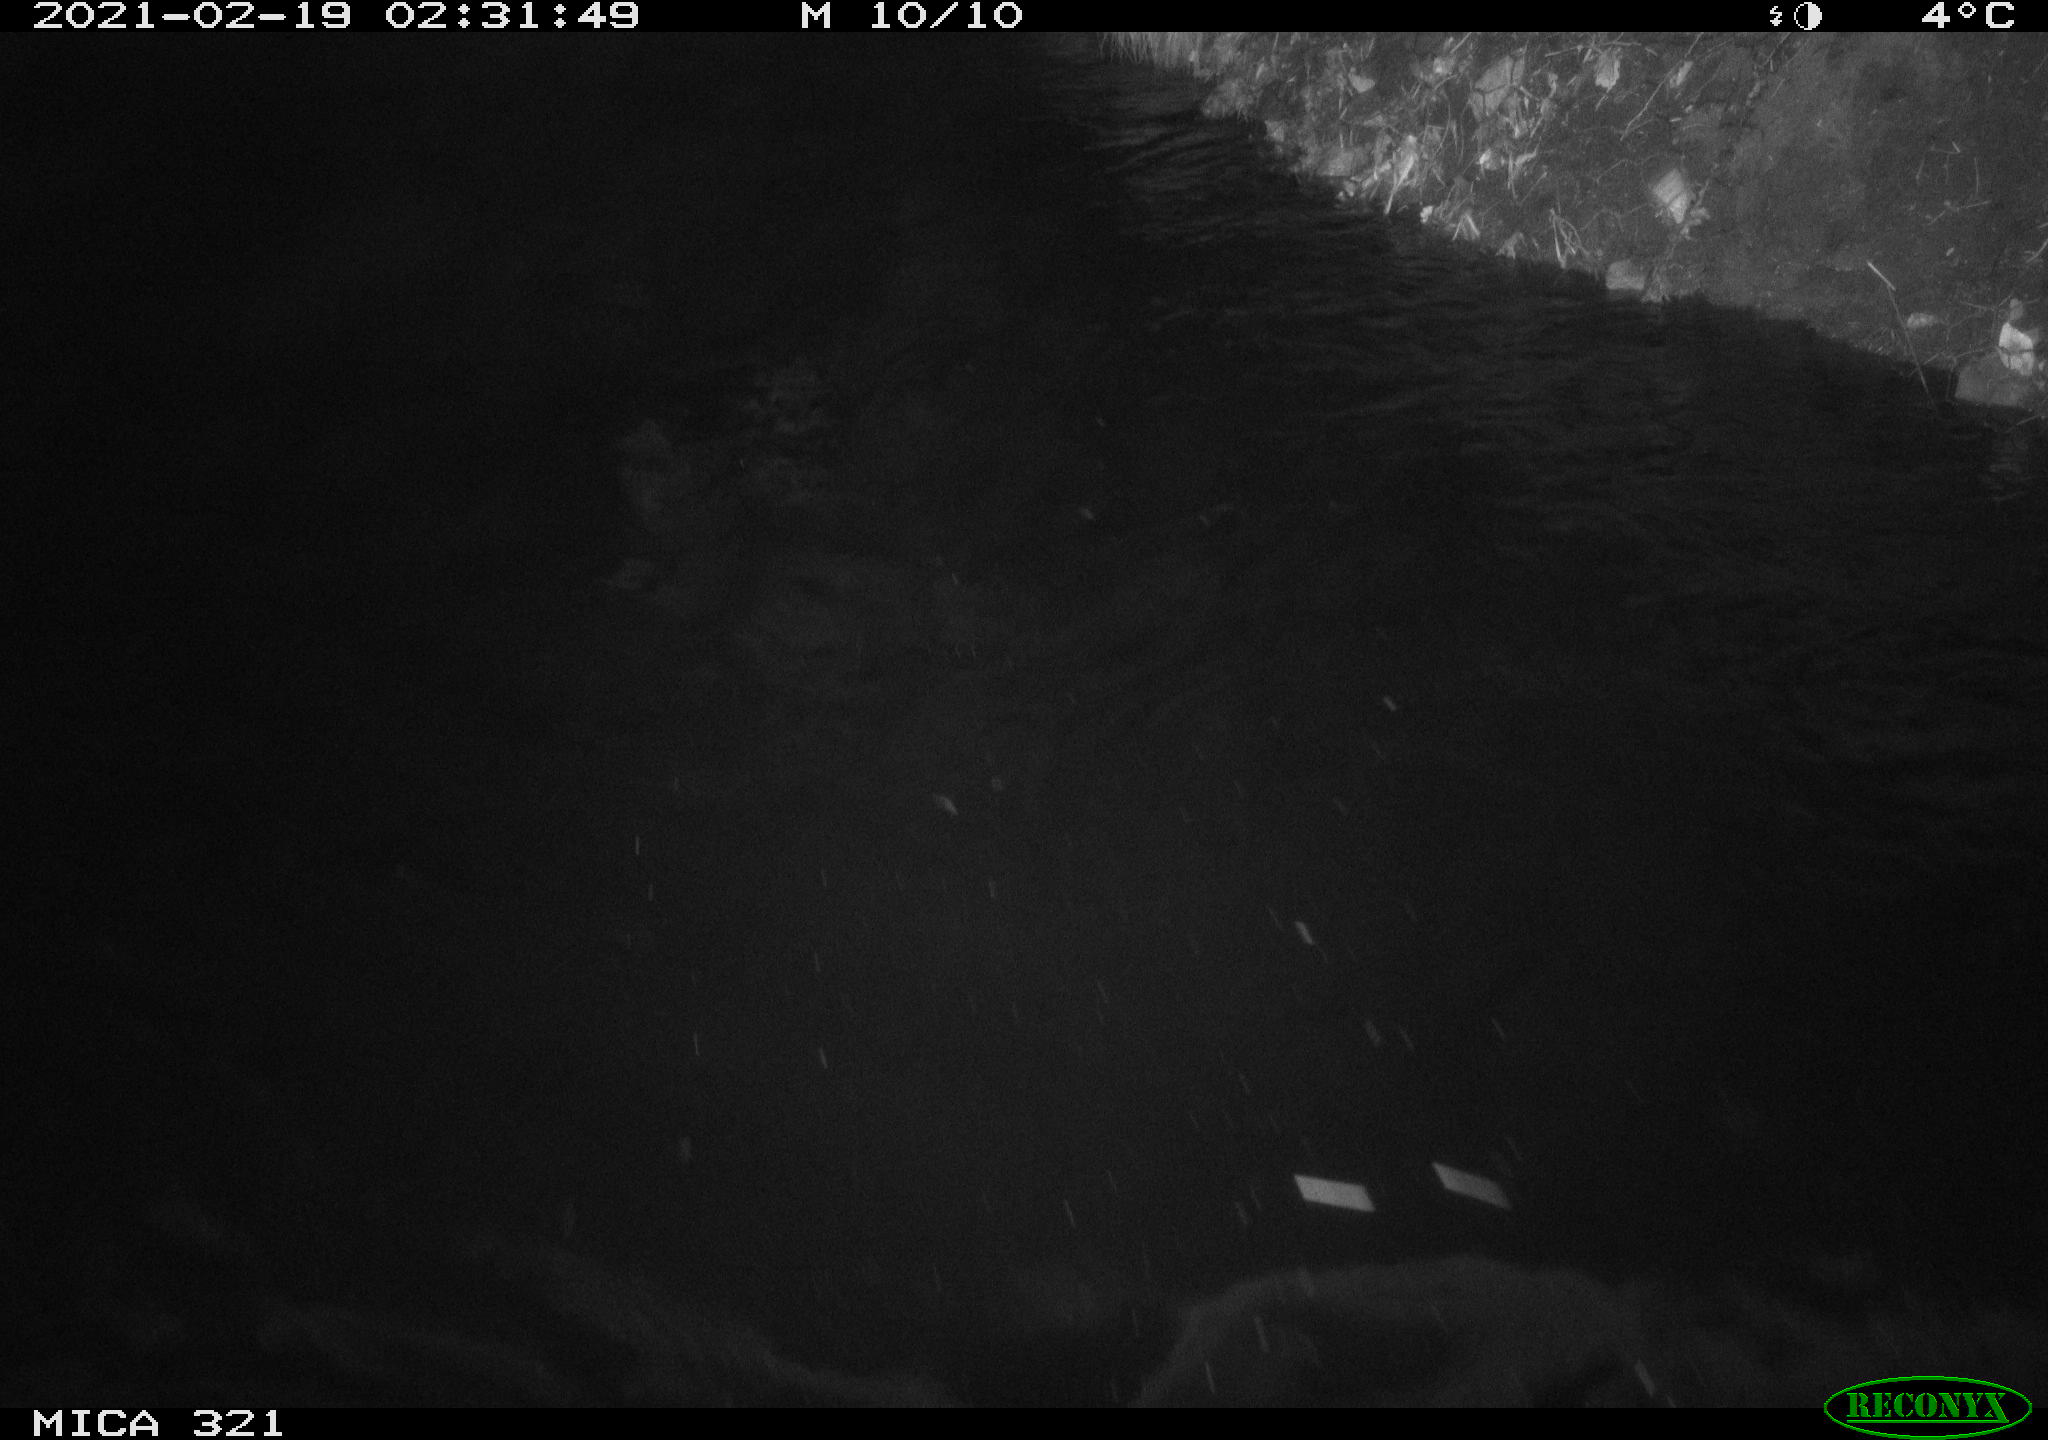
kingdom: Animalia
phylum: Chordata
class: Mammalia
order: Rodentia
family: Muridae
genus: Rattus
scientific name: Rattus norvegicus
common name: Brown rat
